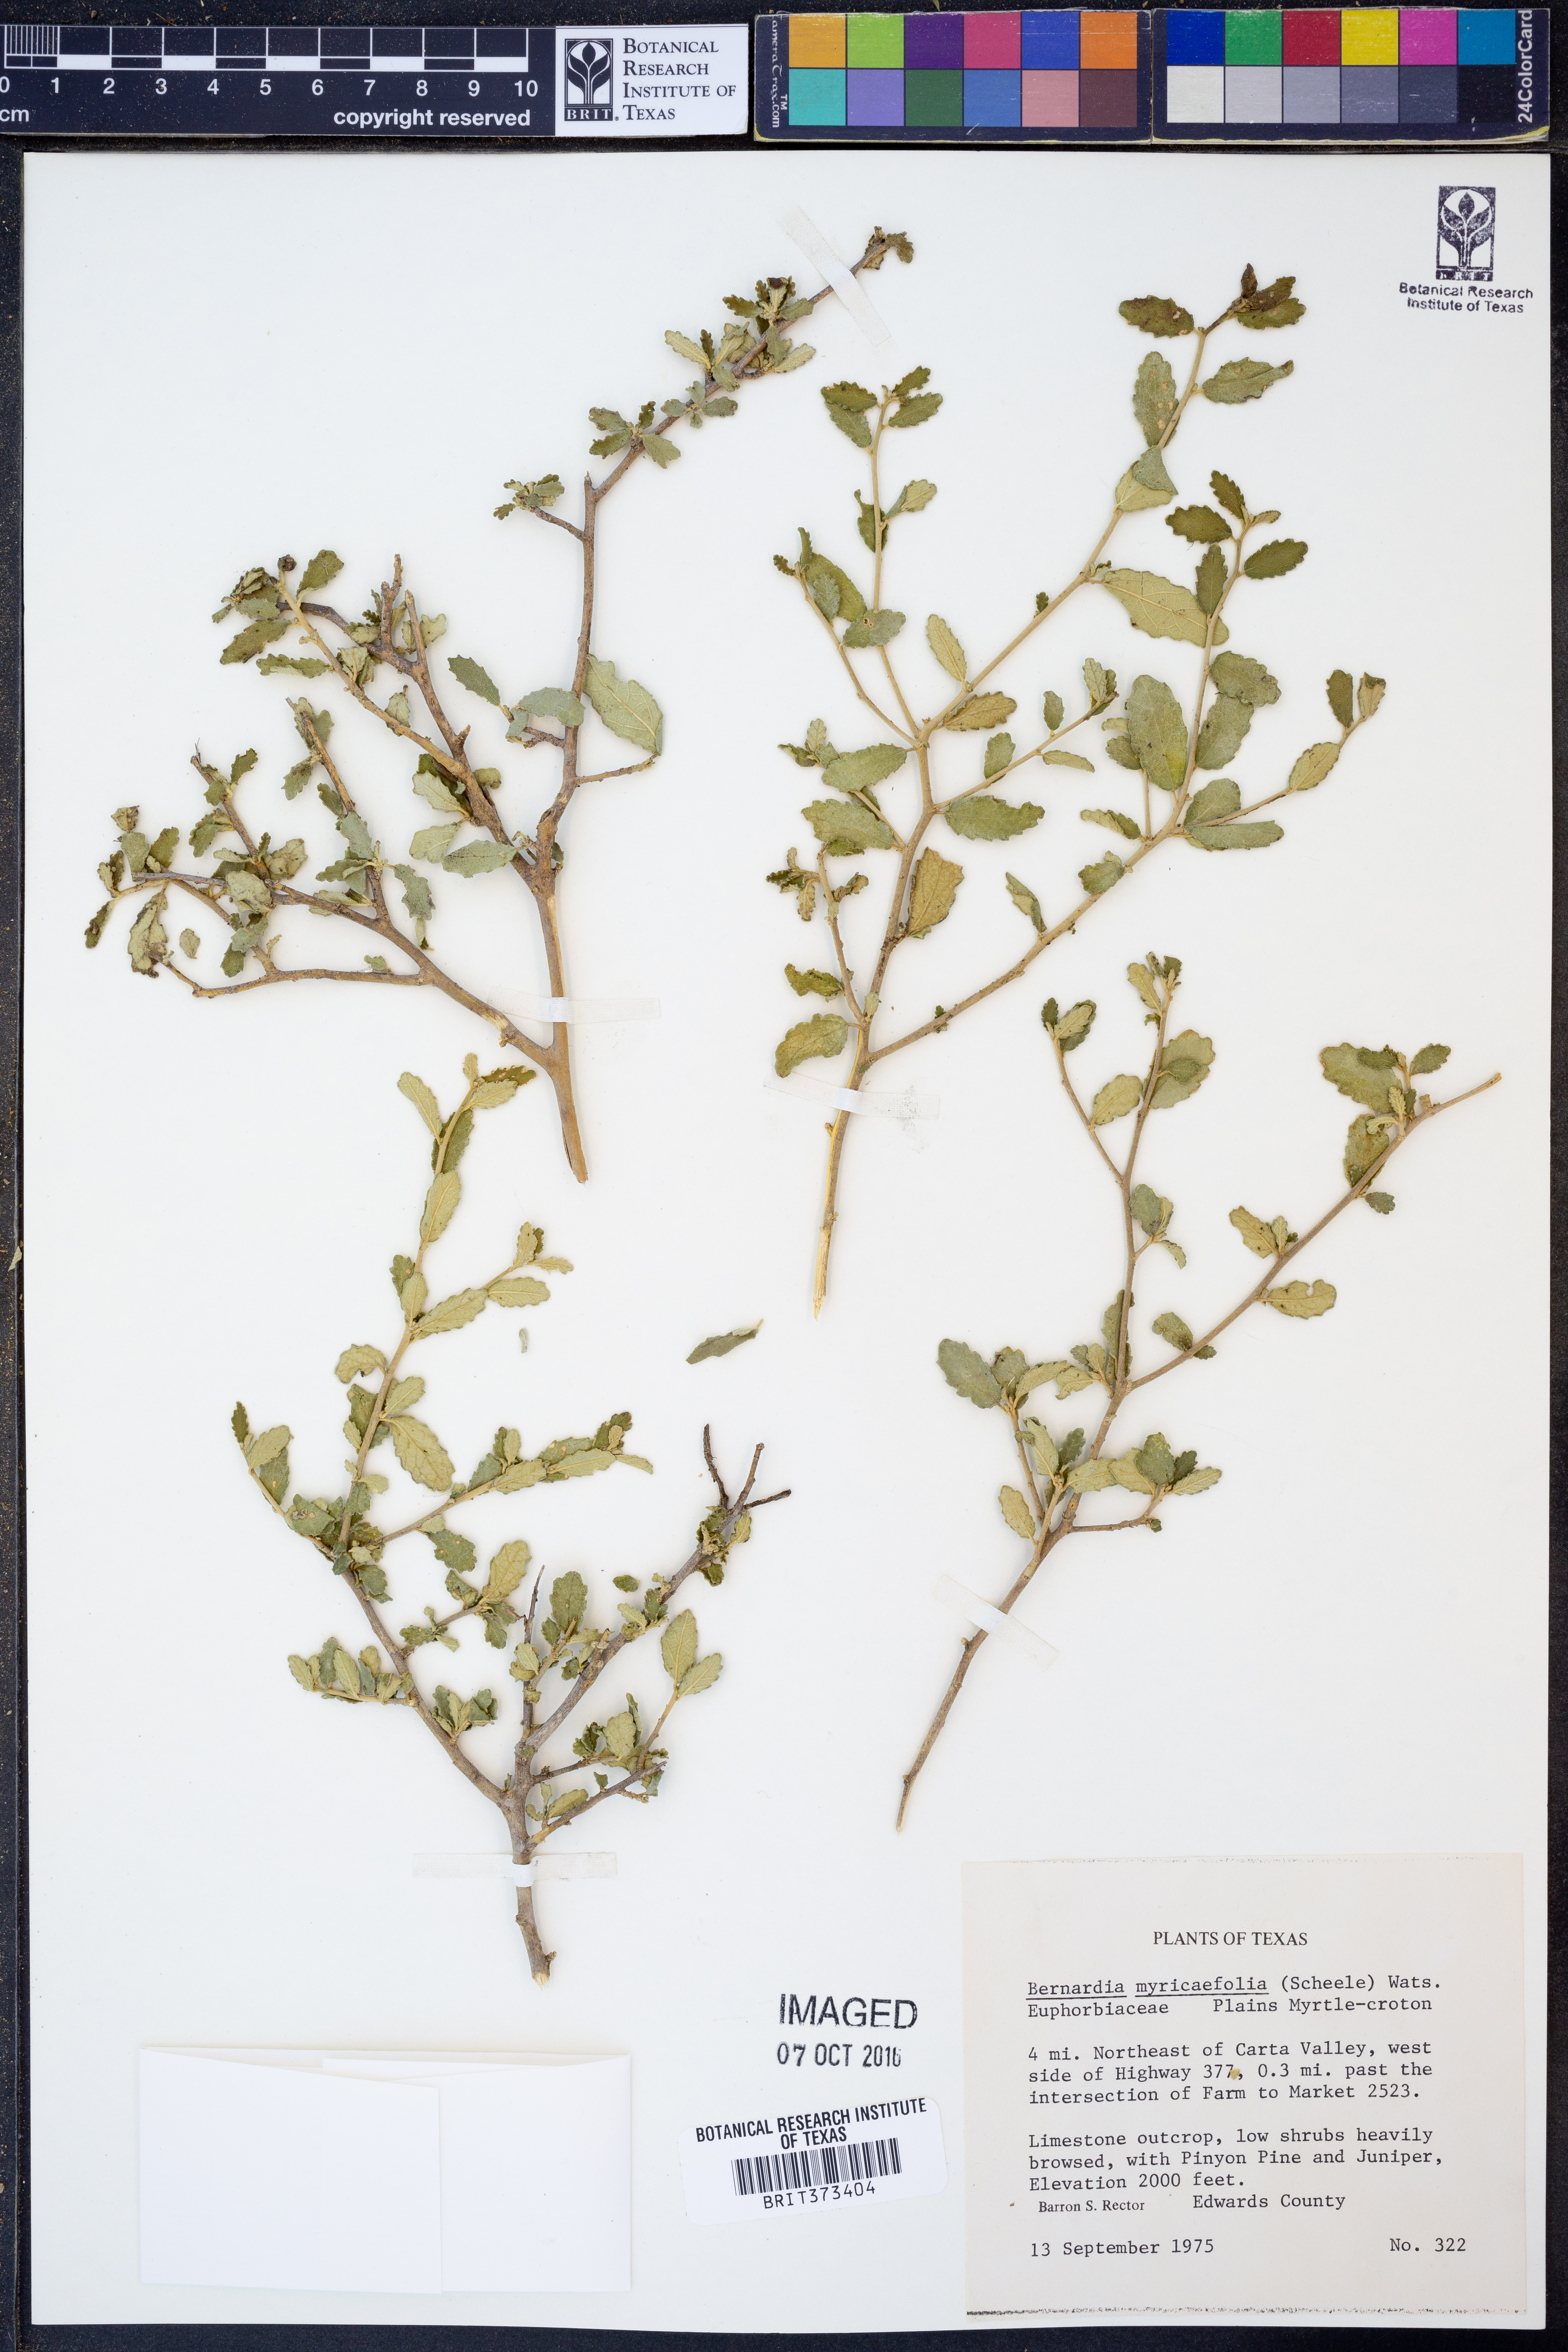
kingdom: Plantae
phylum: Tracheophyta
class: Magnoliopsida
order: Malpighiales
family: Euphorbiaceae
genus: Bernardia
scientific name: Bernardia myricifolia
